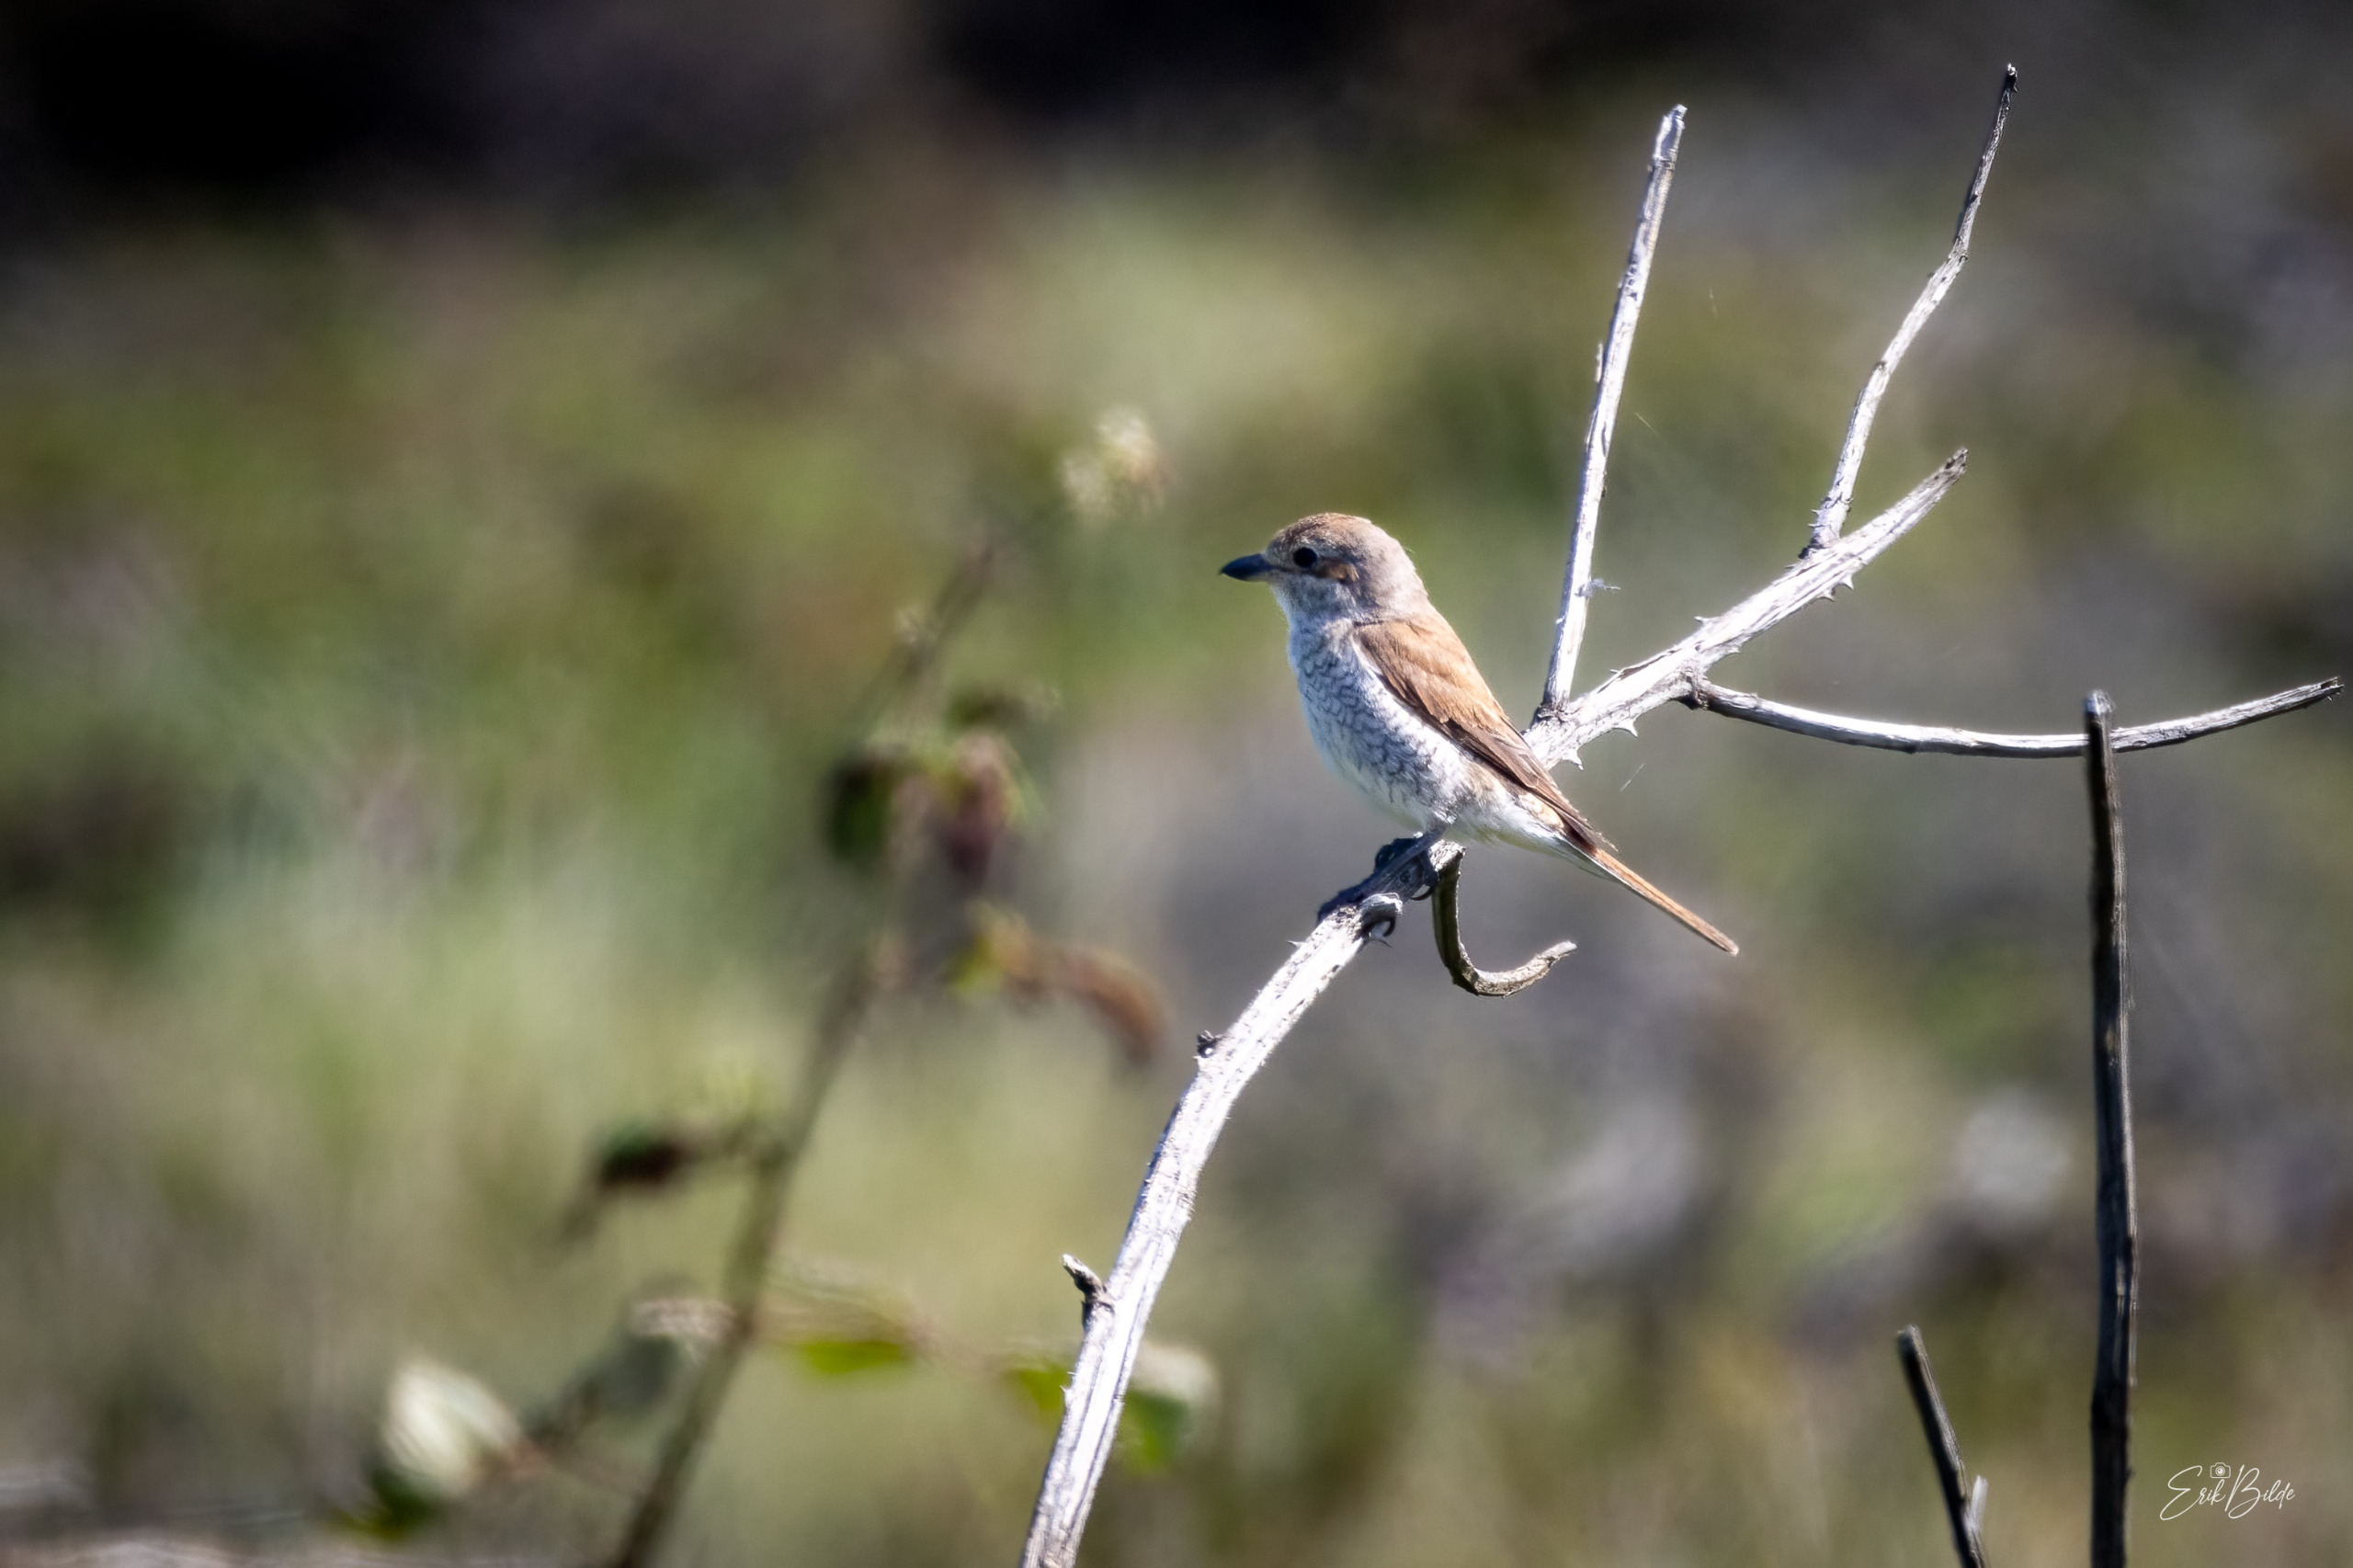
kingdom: Animalia
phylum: Chordata
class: Aves
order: Passeriformes
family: Laniidae
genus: Lanius
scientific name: Lanius collurio
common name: Rødrygget tornskade
